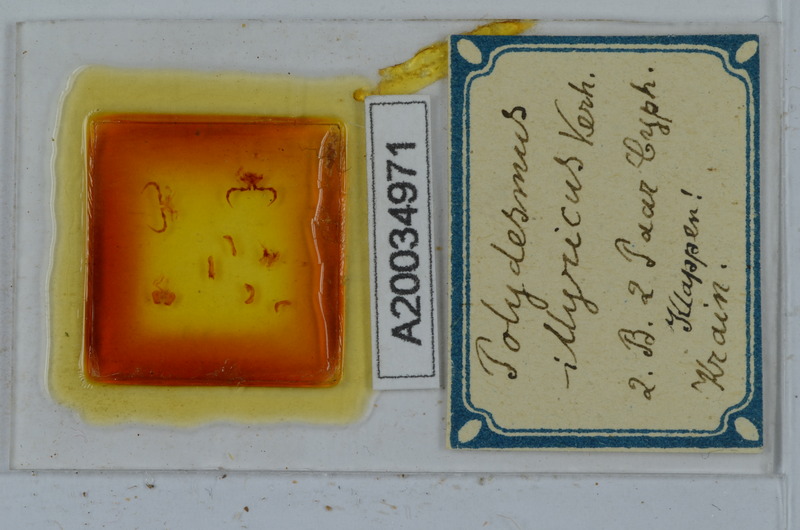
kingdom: Animalia
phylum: Arthropoda
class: Diplopoda
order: Polydesmida
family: Polydesmidae
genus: Polydesmus
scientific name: Polydesmus complanatus
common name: Flat-backed millipede
